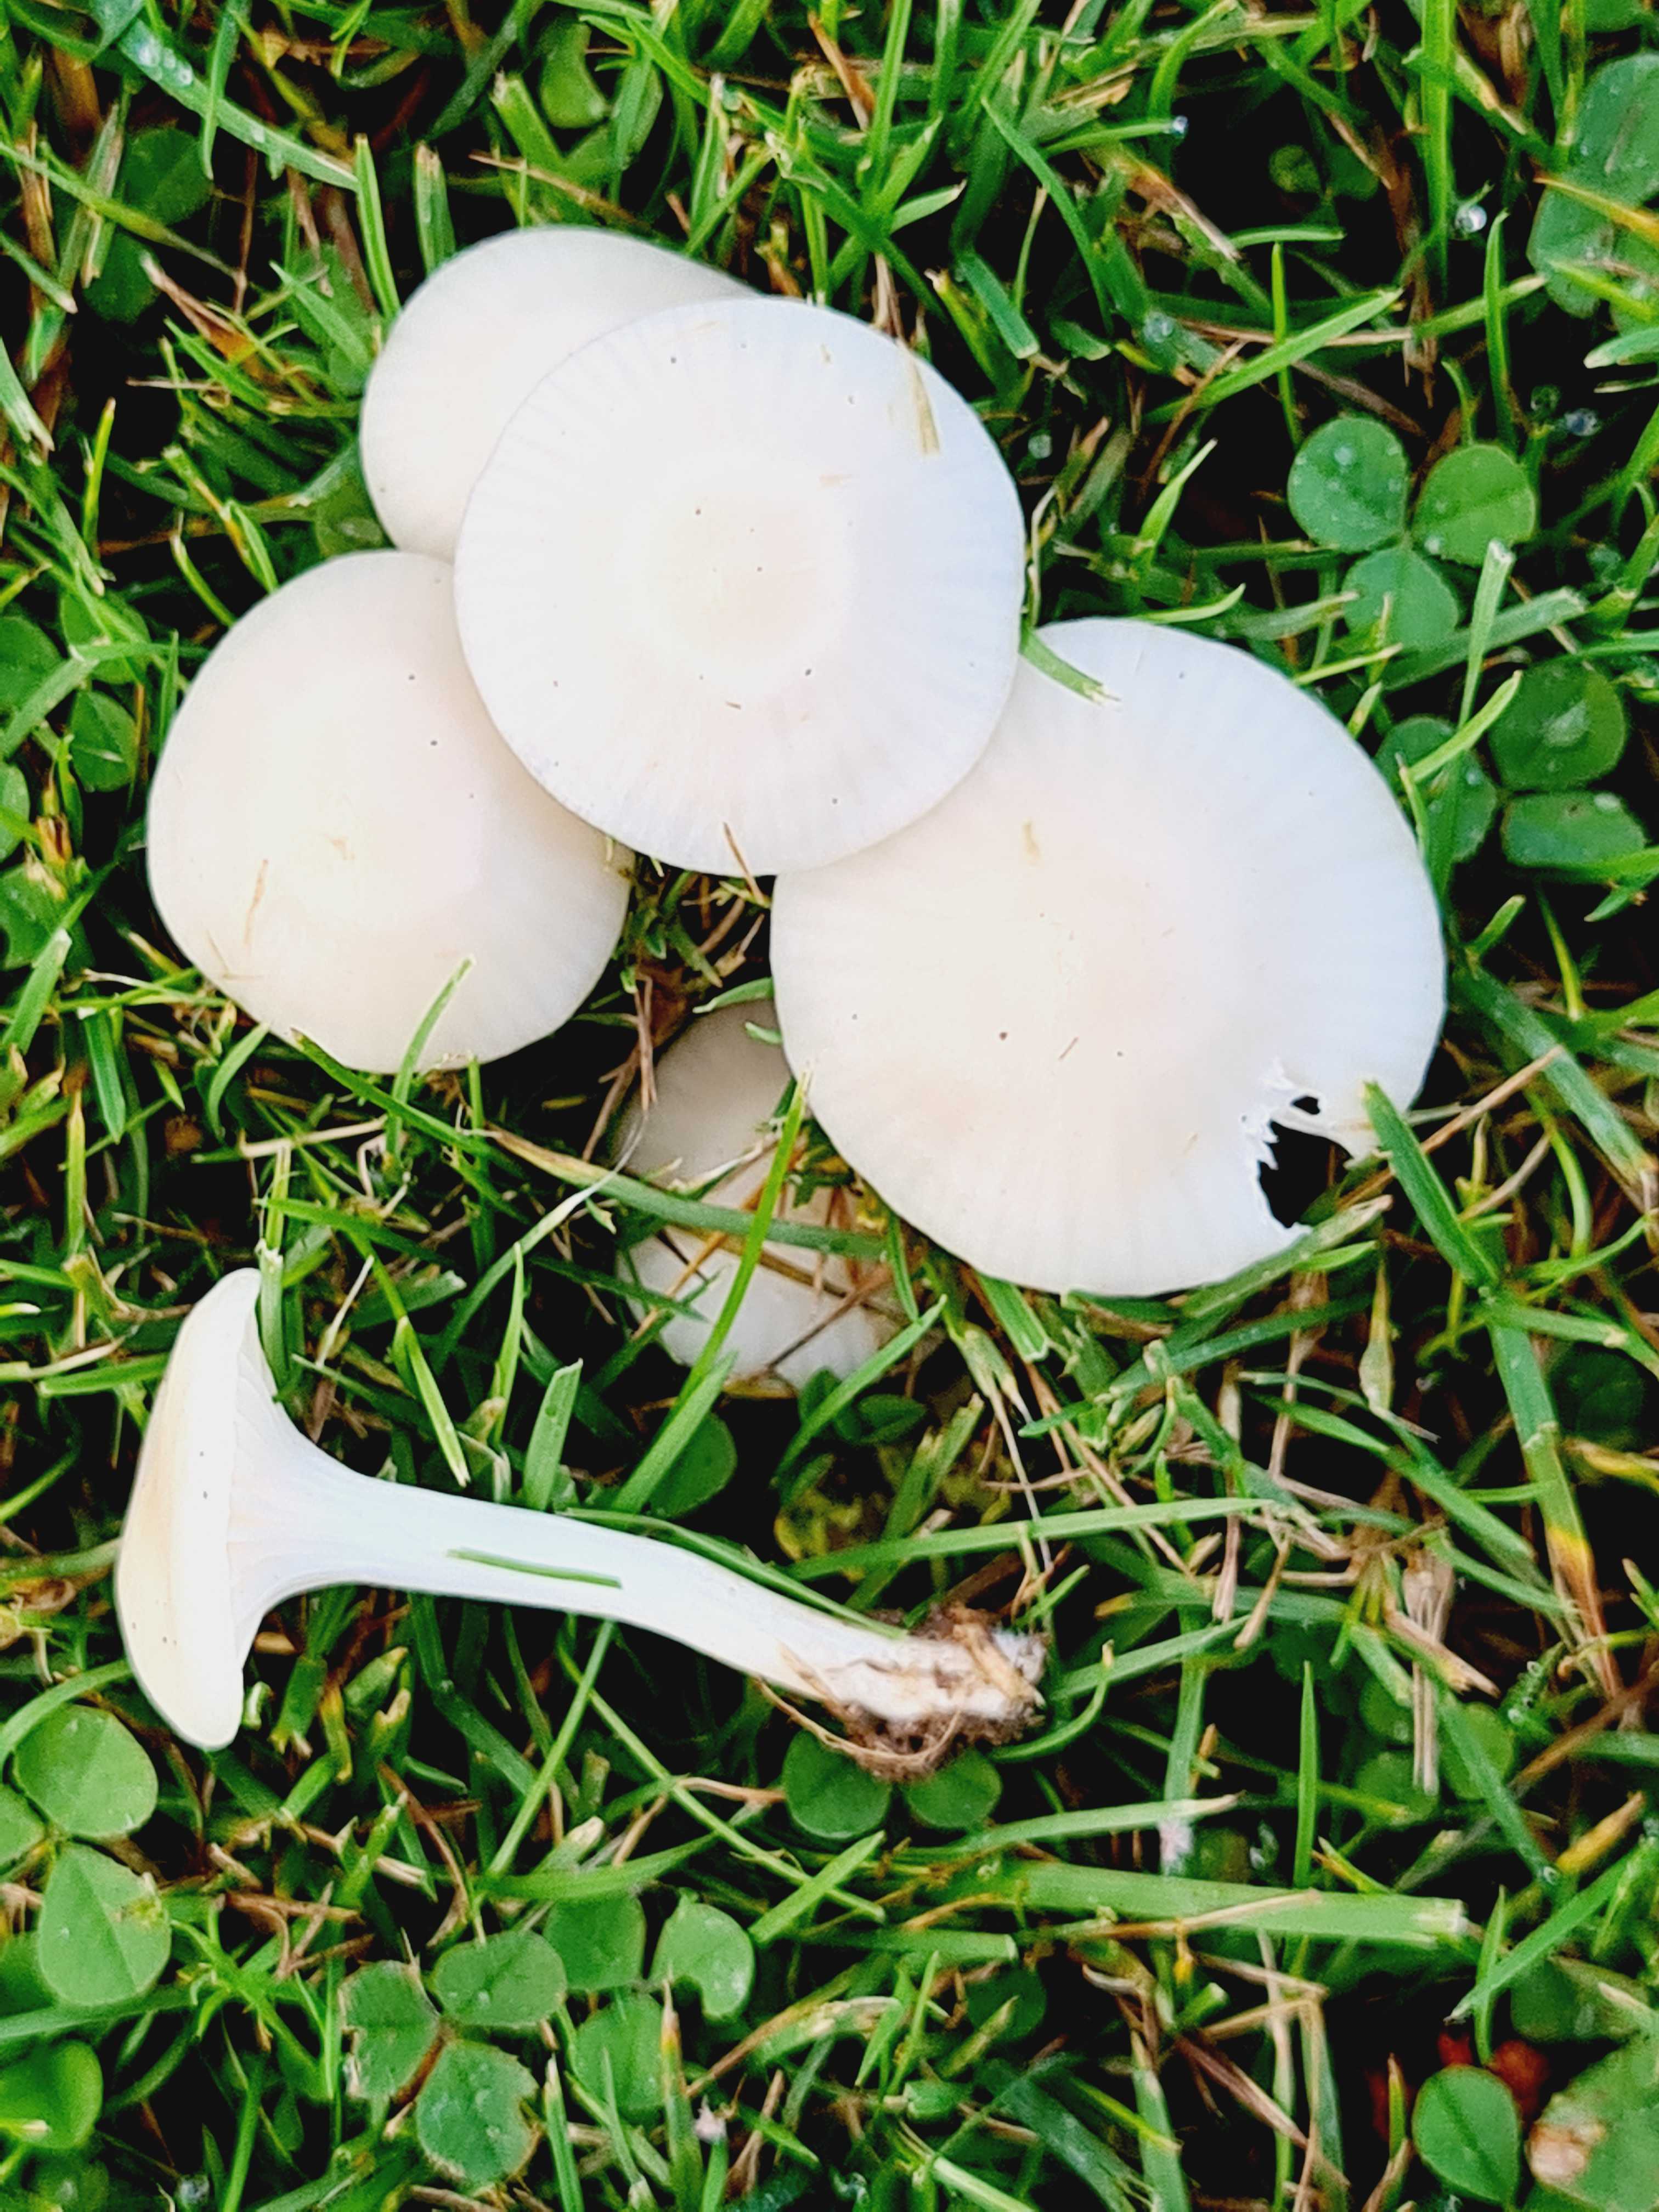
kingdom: Fungi
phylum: Basidiomycota
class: Agaricomycetes
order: Agaricales
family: Hygrophoraceae
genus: Cuphophyllus
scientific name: Cuphophyllus virgineus
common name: snehvid vokshat
